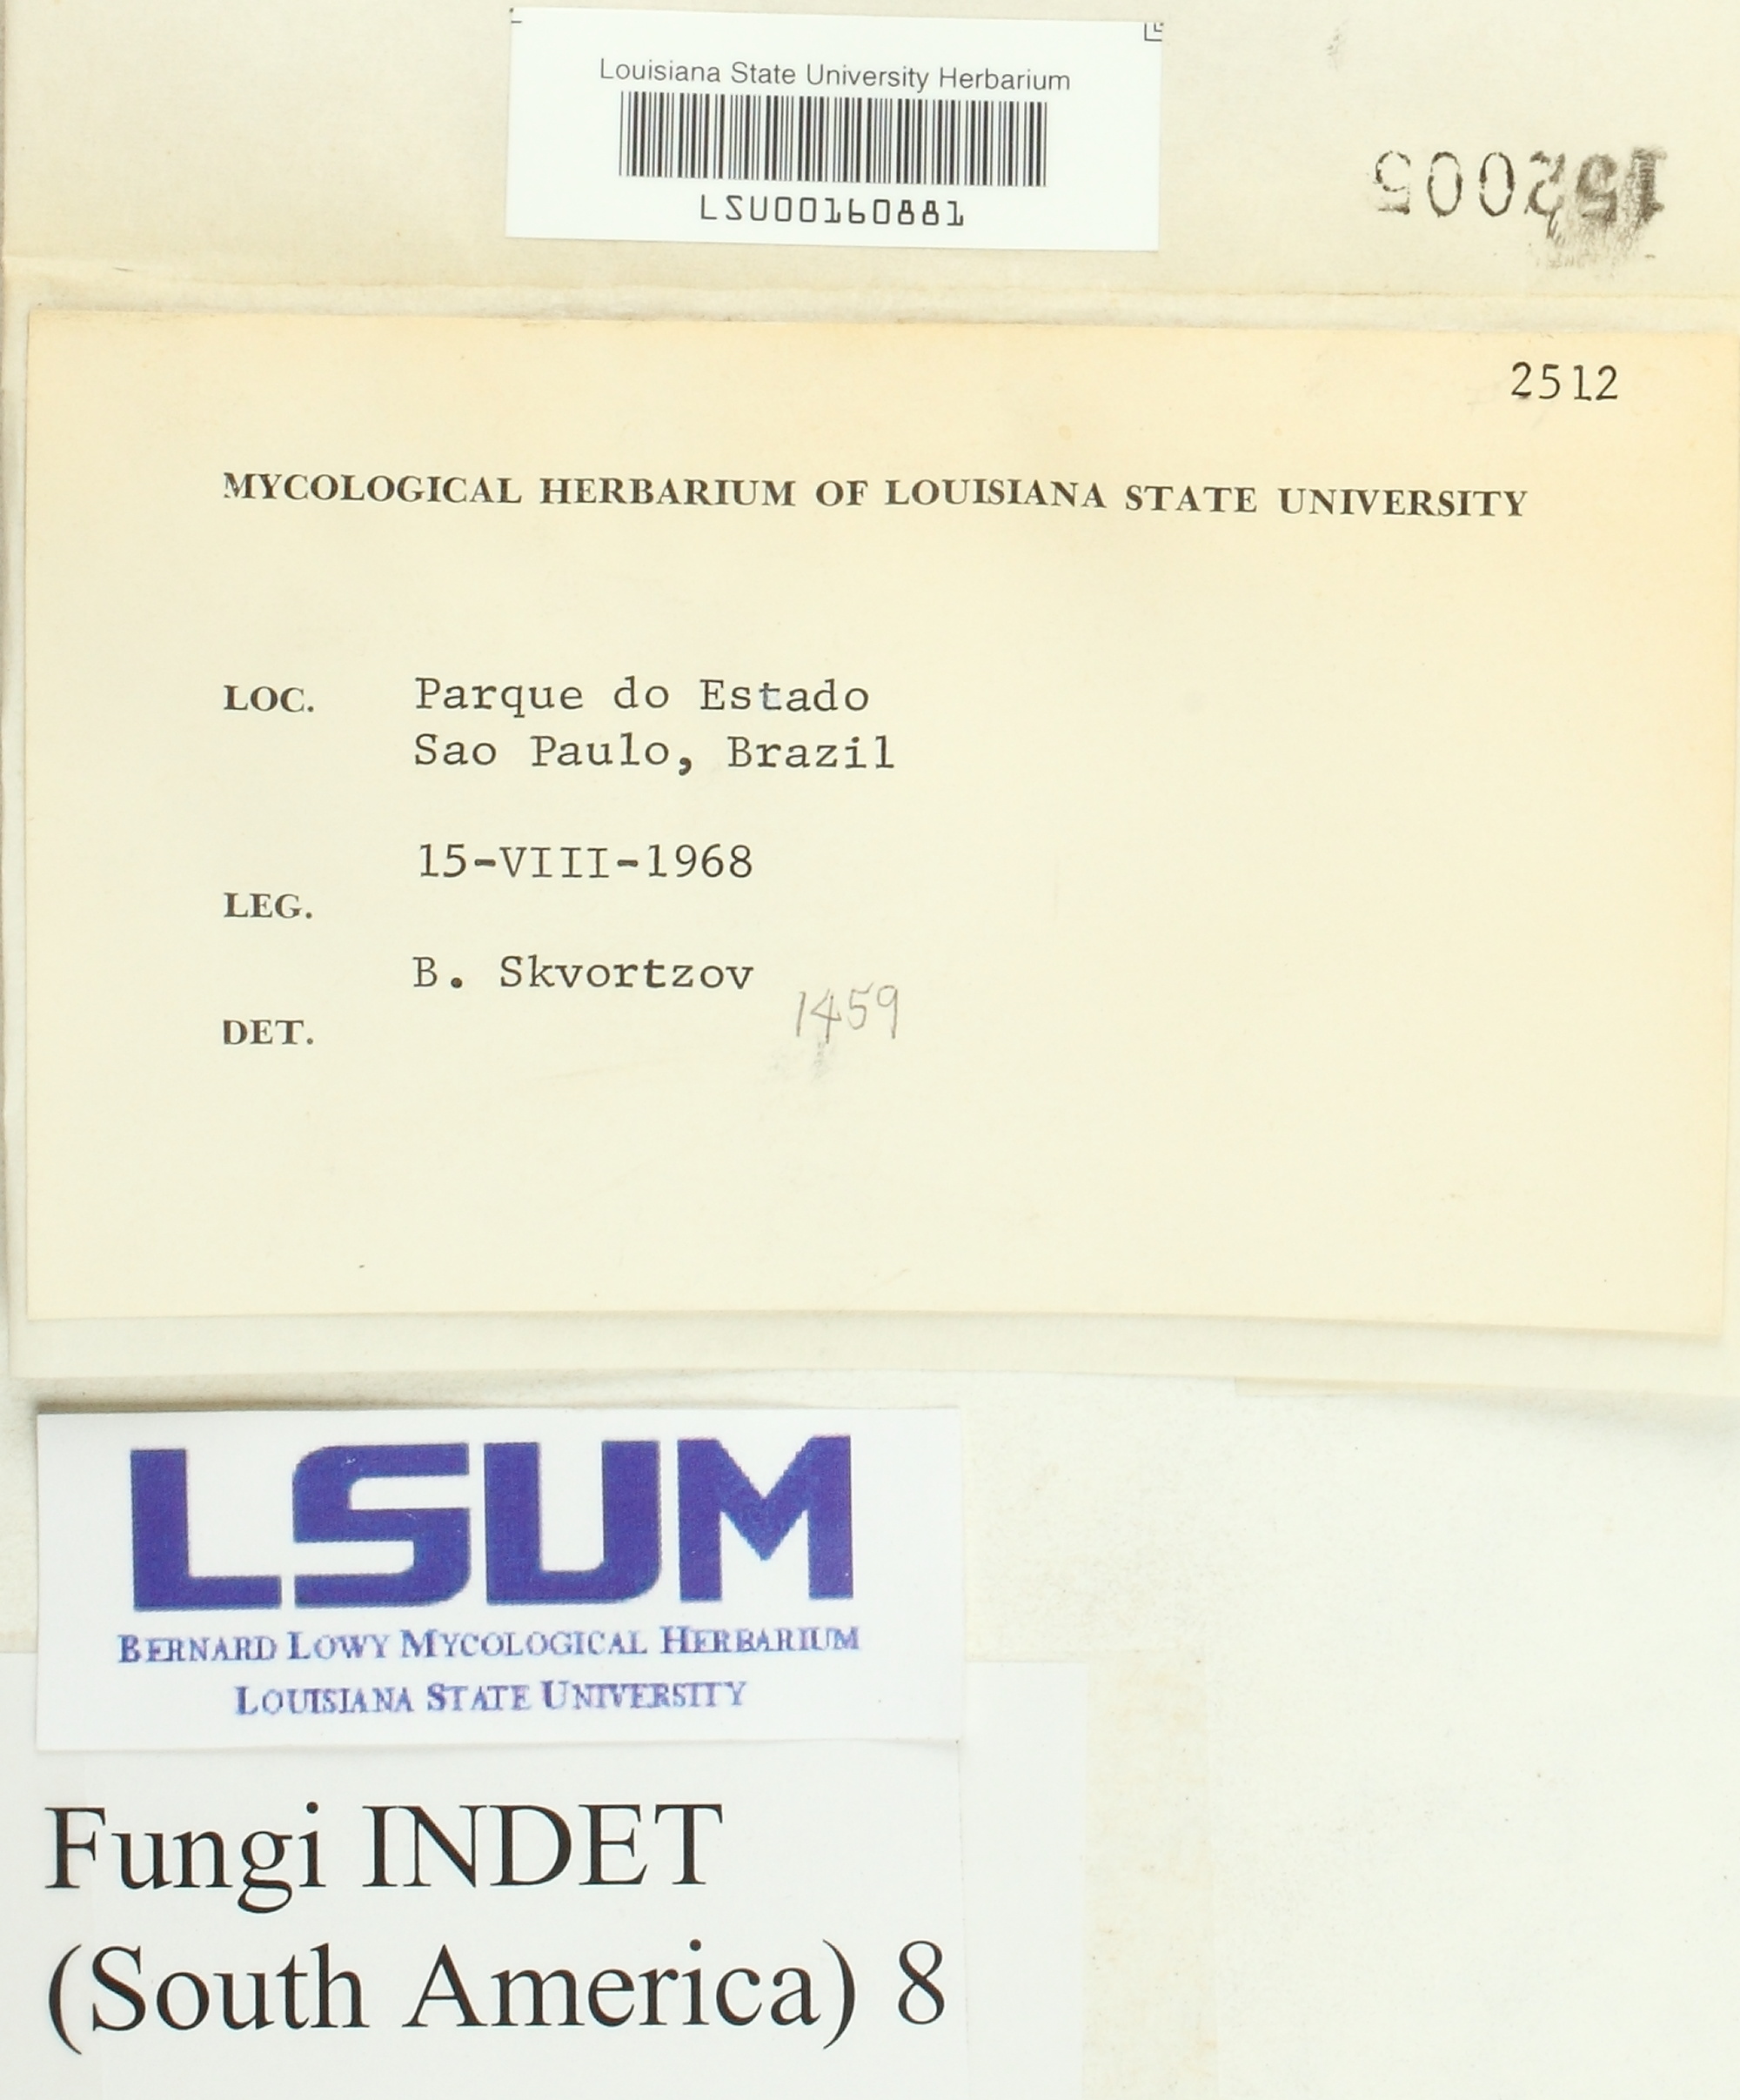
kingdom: Fungi
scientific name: Fungi
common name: Fungi
